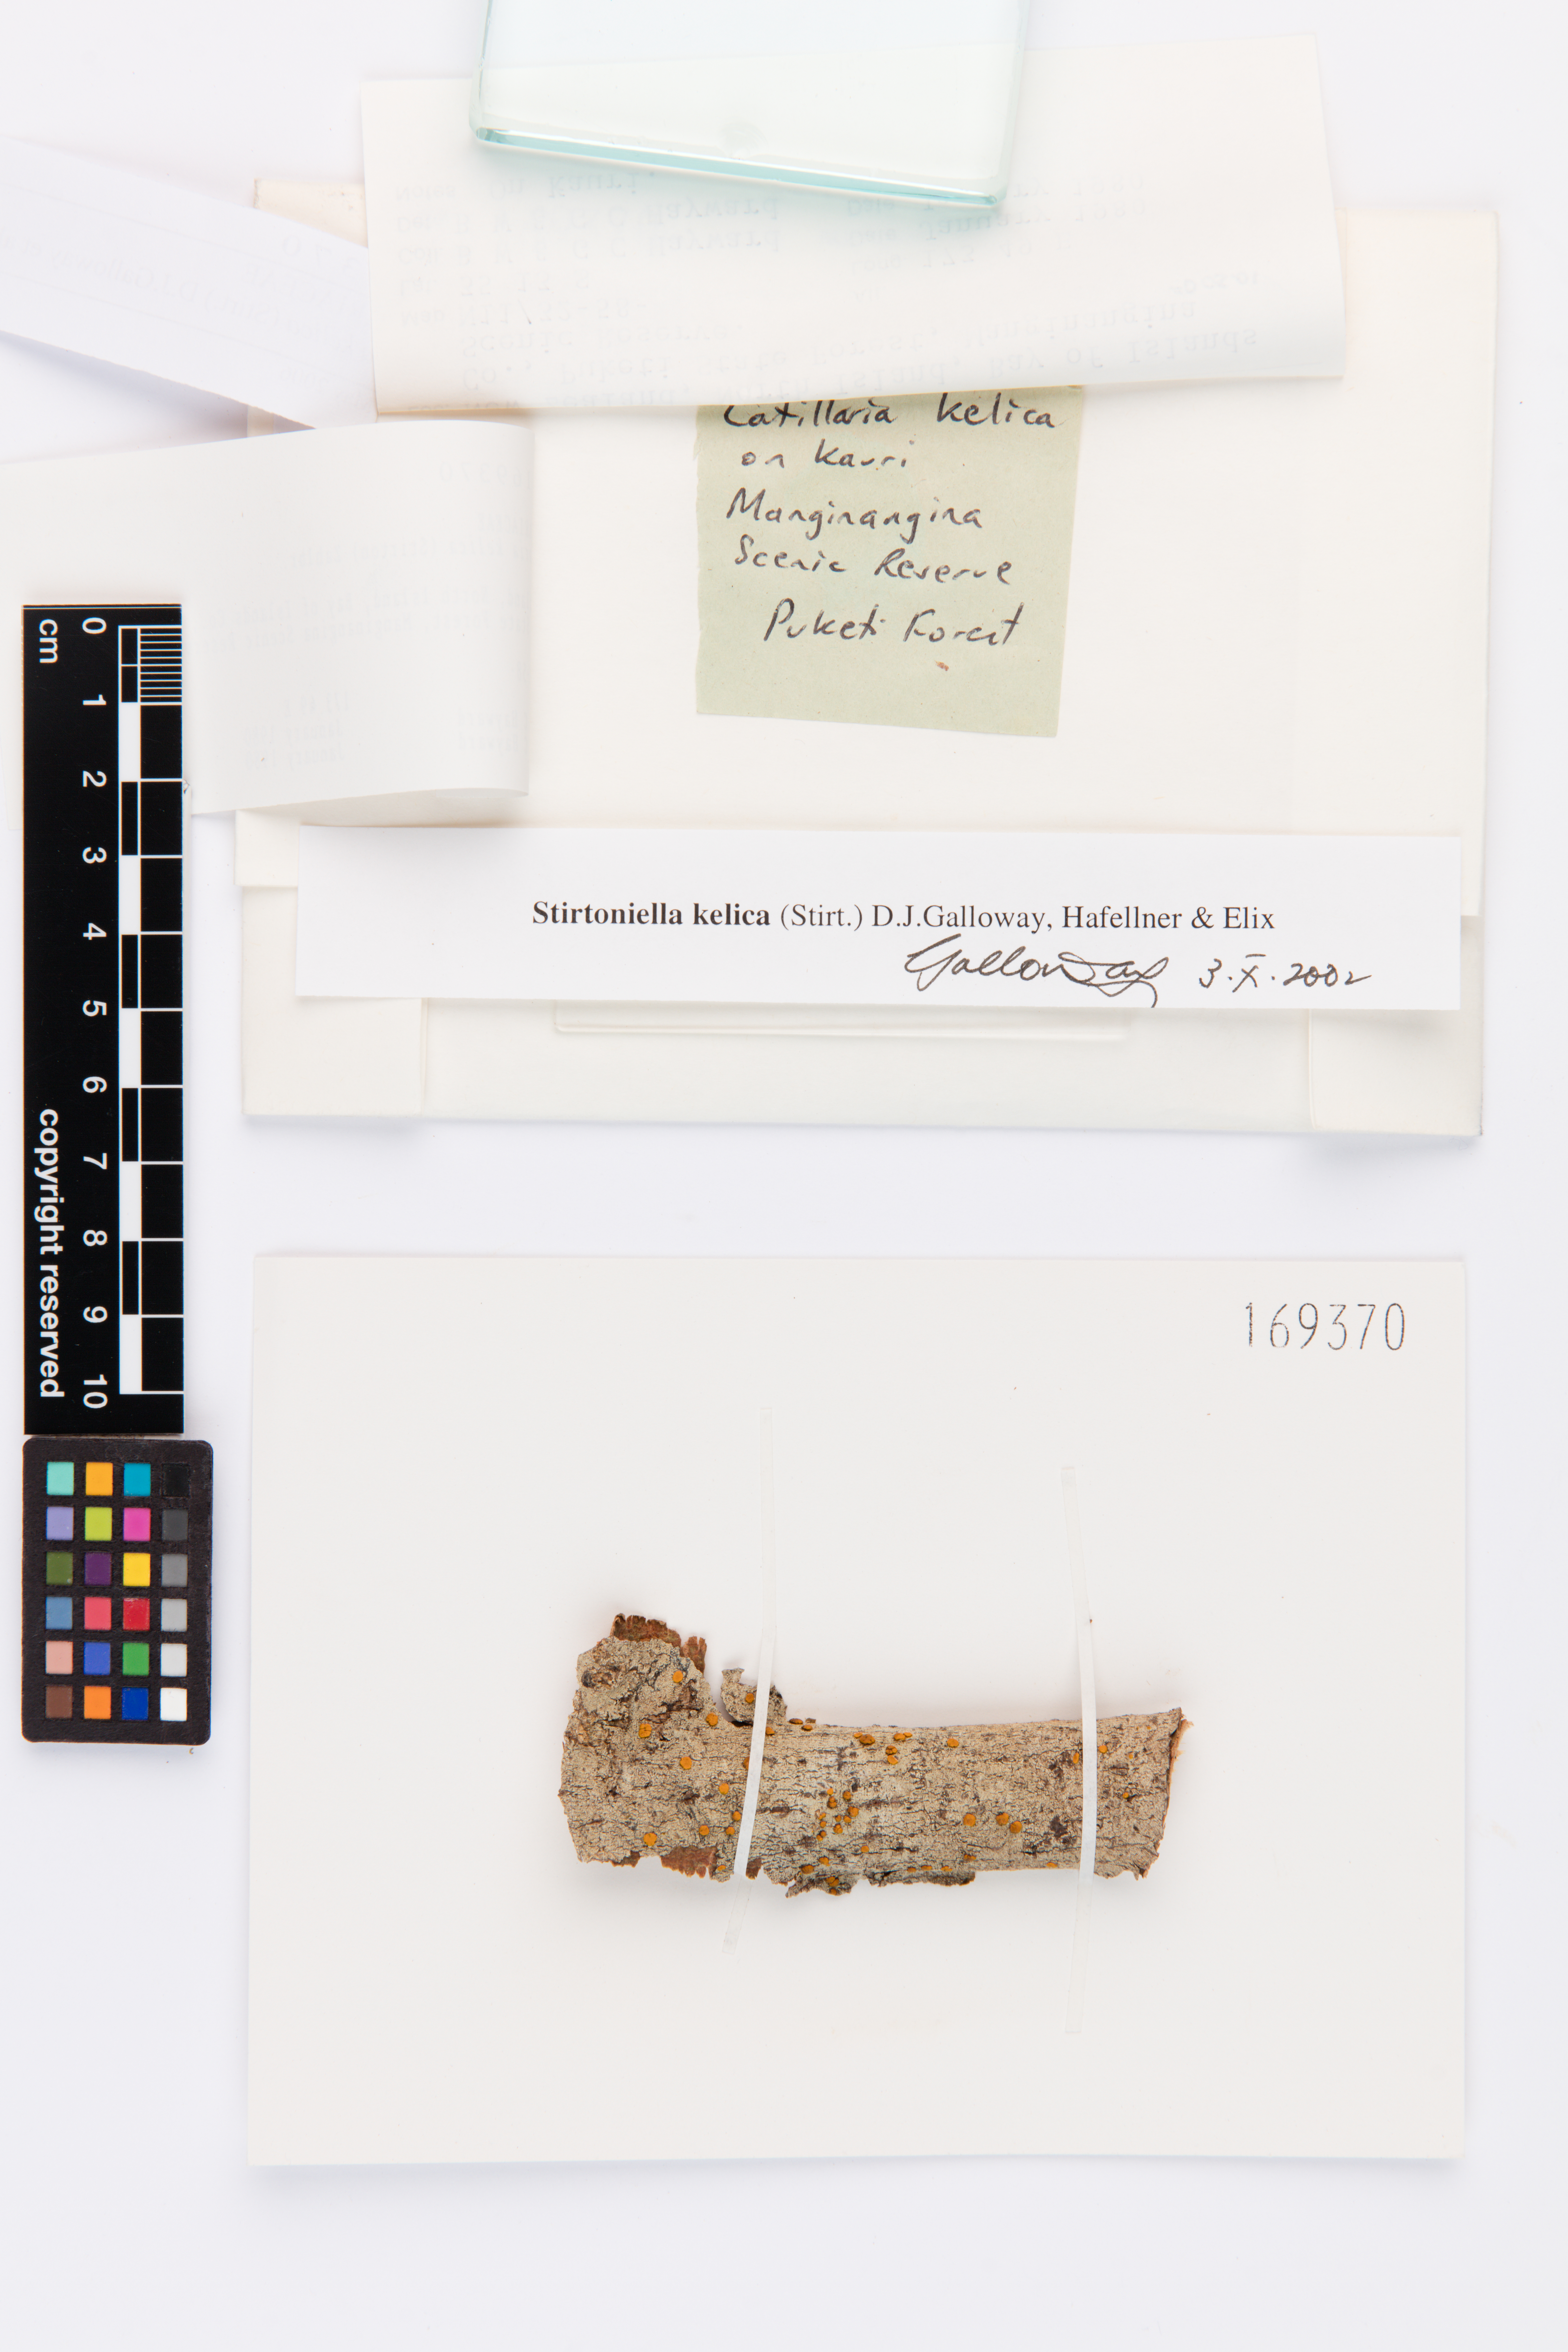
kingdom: Fungi
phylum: Ascomycota
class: Lecanoromycetes
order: Lecanorales
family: Ramalinaceae
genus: Stirtoniella
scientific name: Stirtoniella kelica
